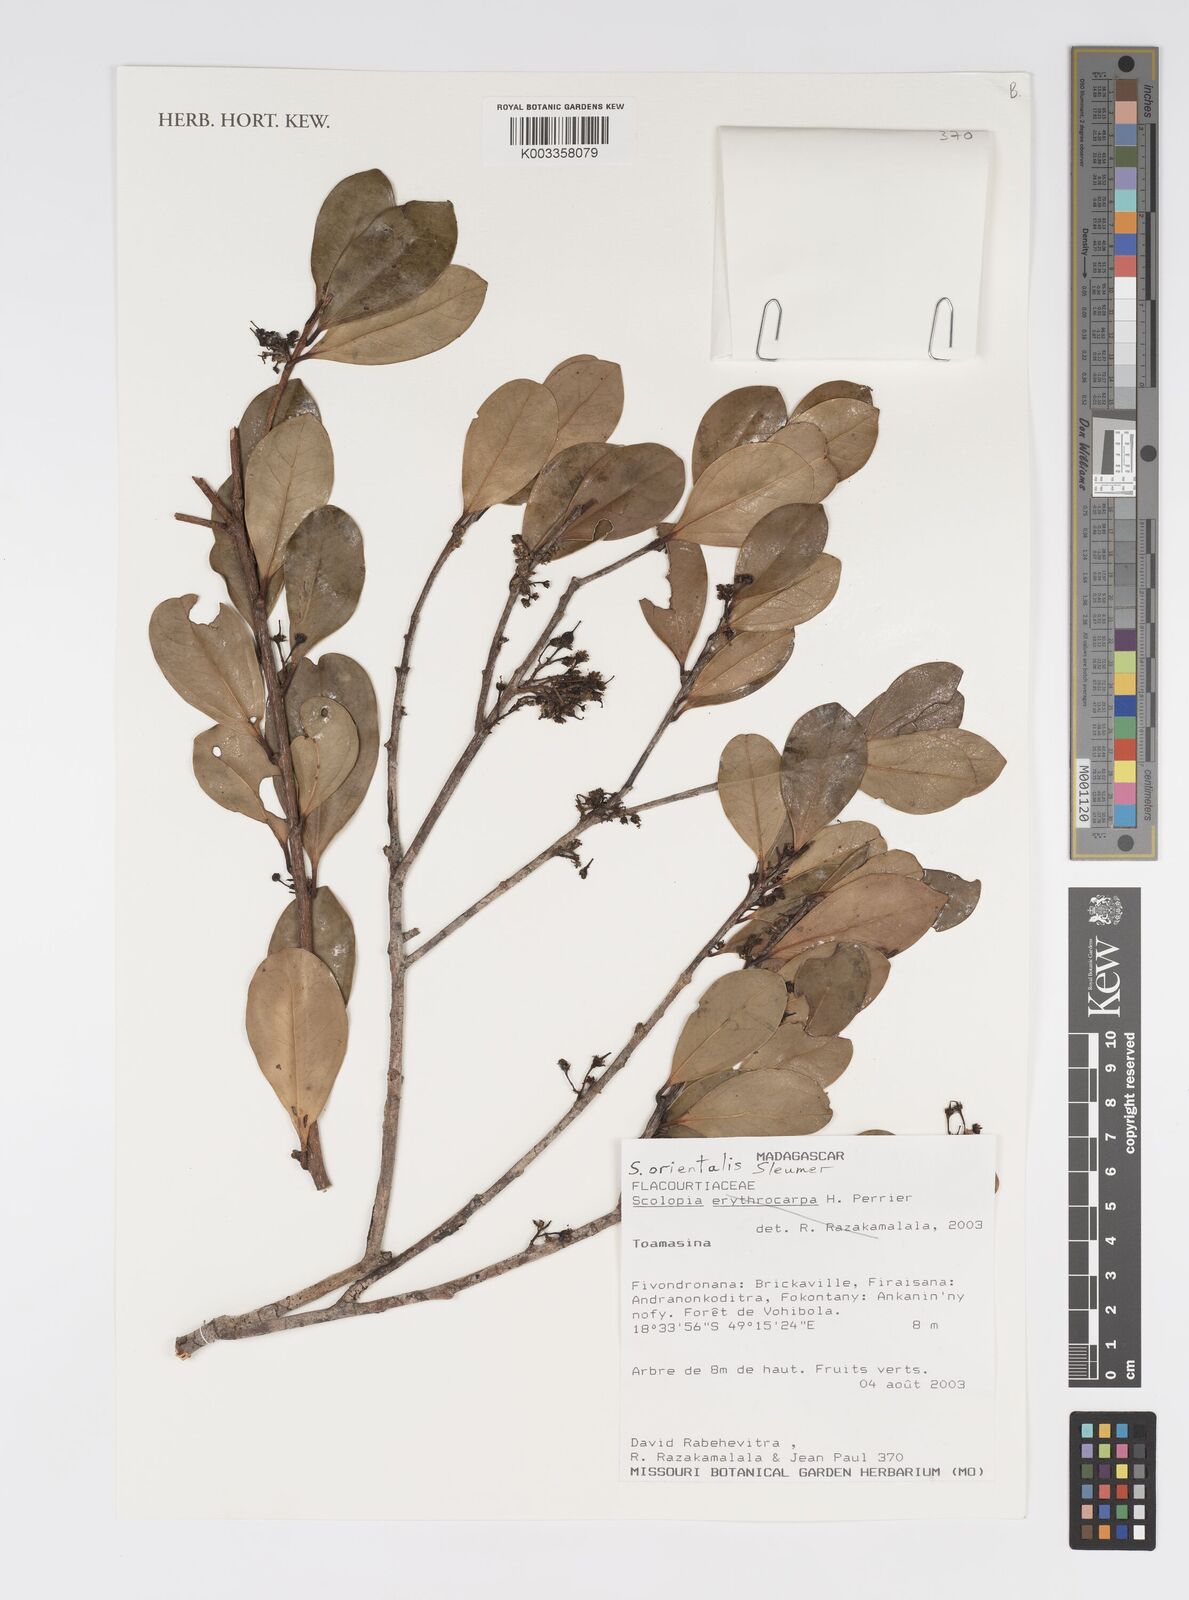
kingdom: Plantae
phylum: Tracheophyta
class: Magnoliopsida
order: Malpighiales
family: Salicaceae
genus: Scolopia
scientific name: Scolopia orientalis
